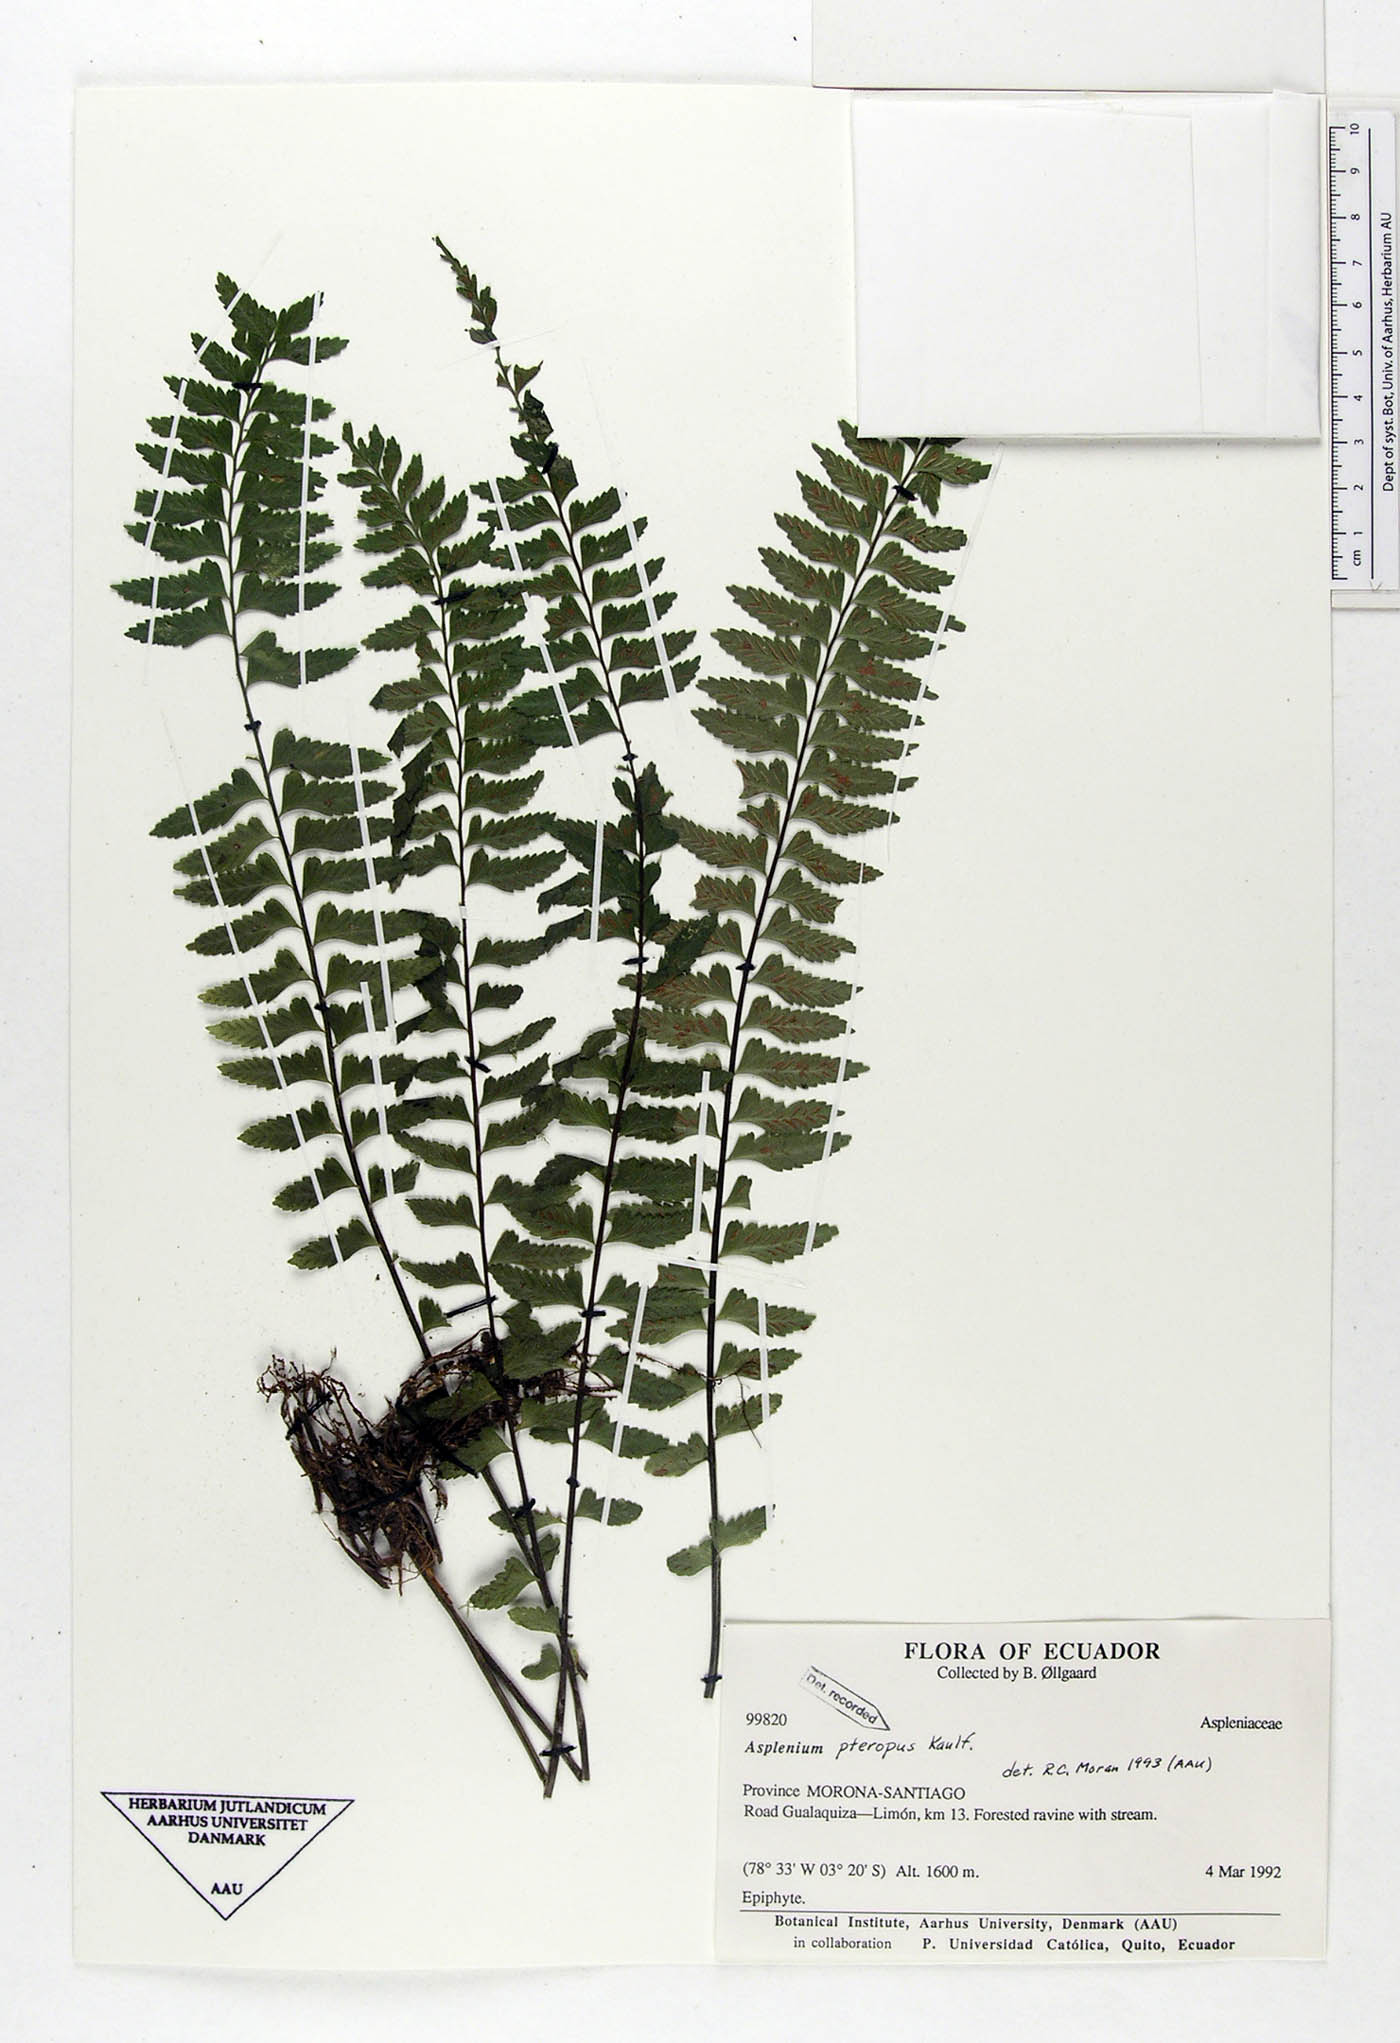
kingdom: Plantae
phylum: Tracheophyta
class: Polypodiopsida
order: Polypodiales
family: Aspleniaceae
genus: Asplenium
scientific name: Asplenium pteropus
